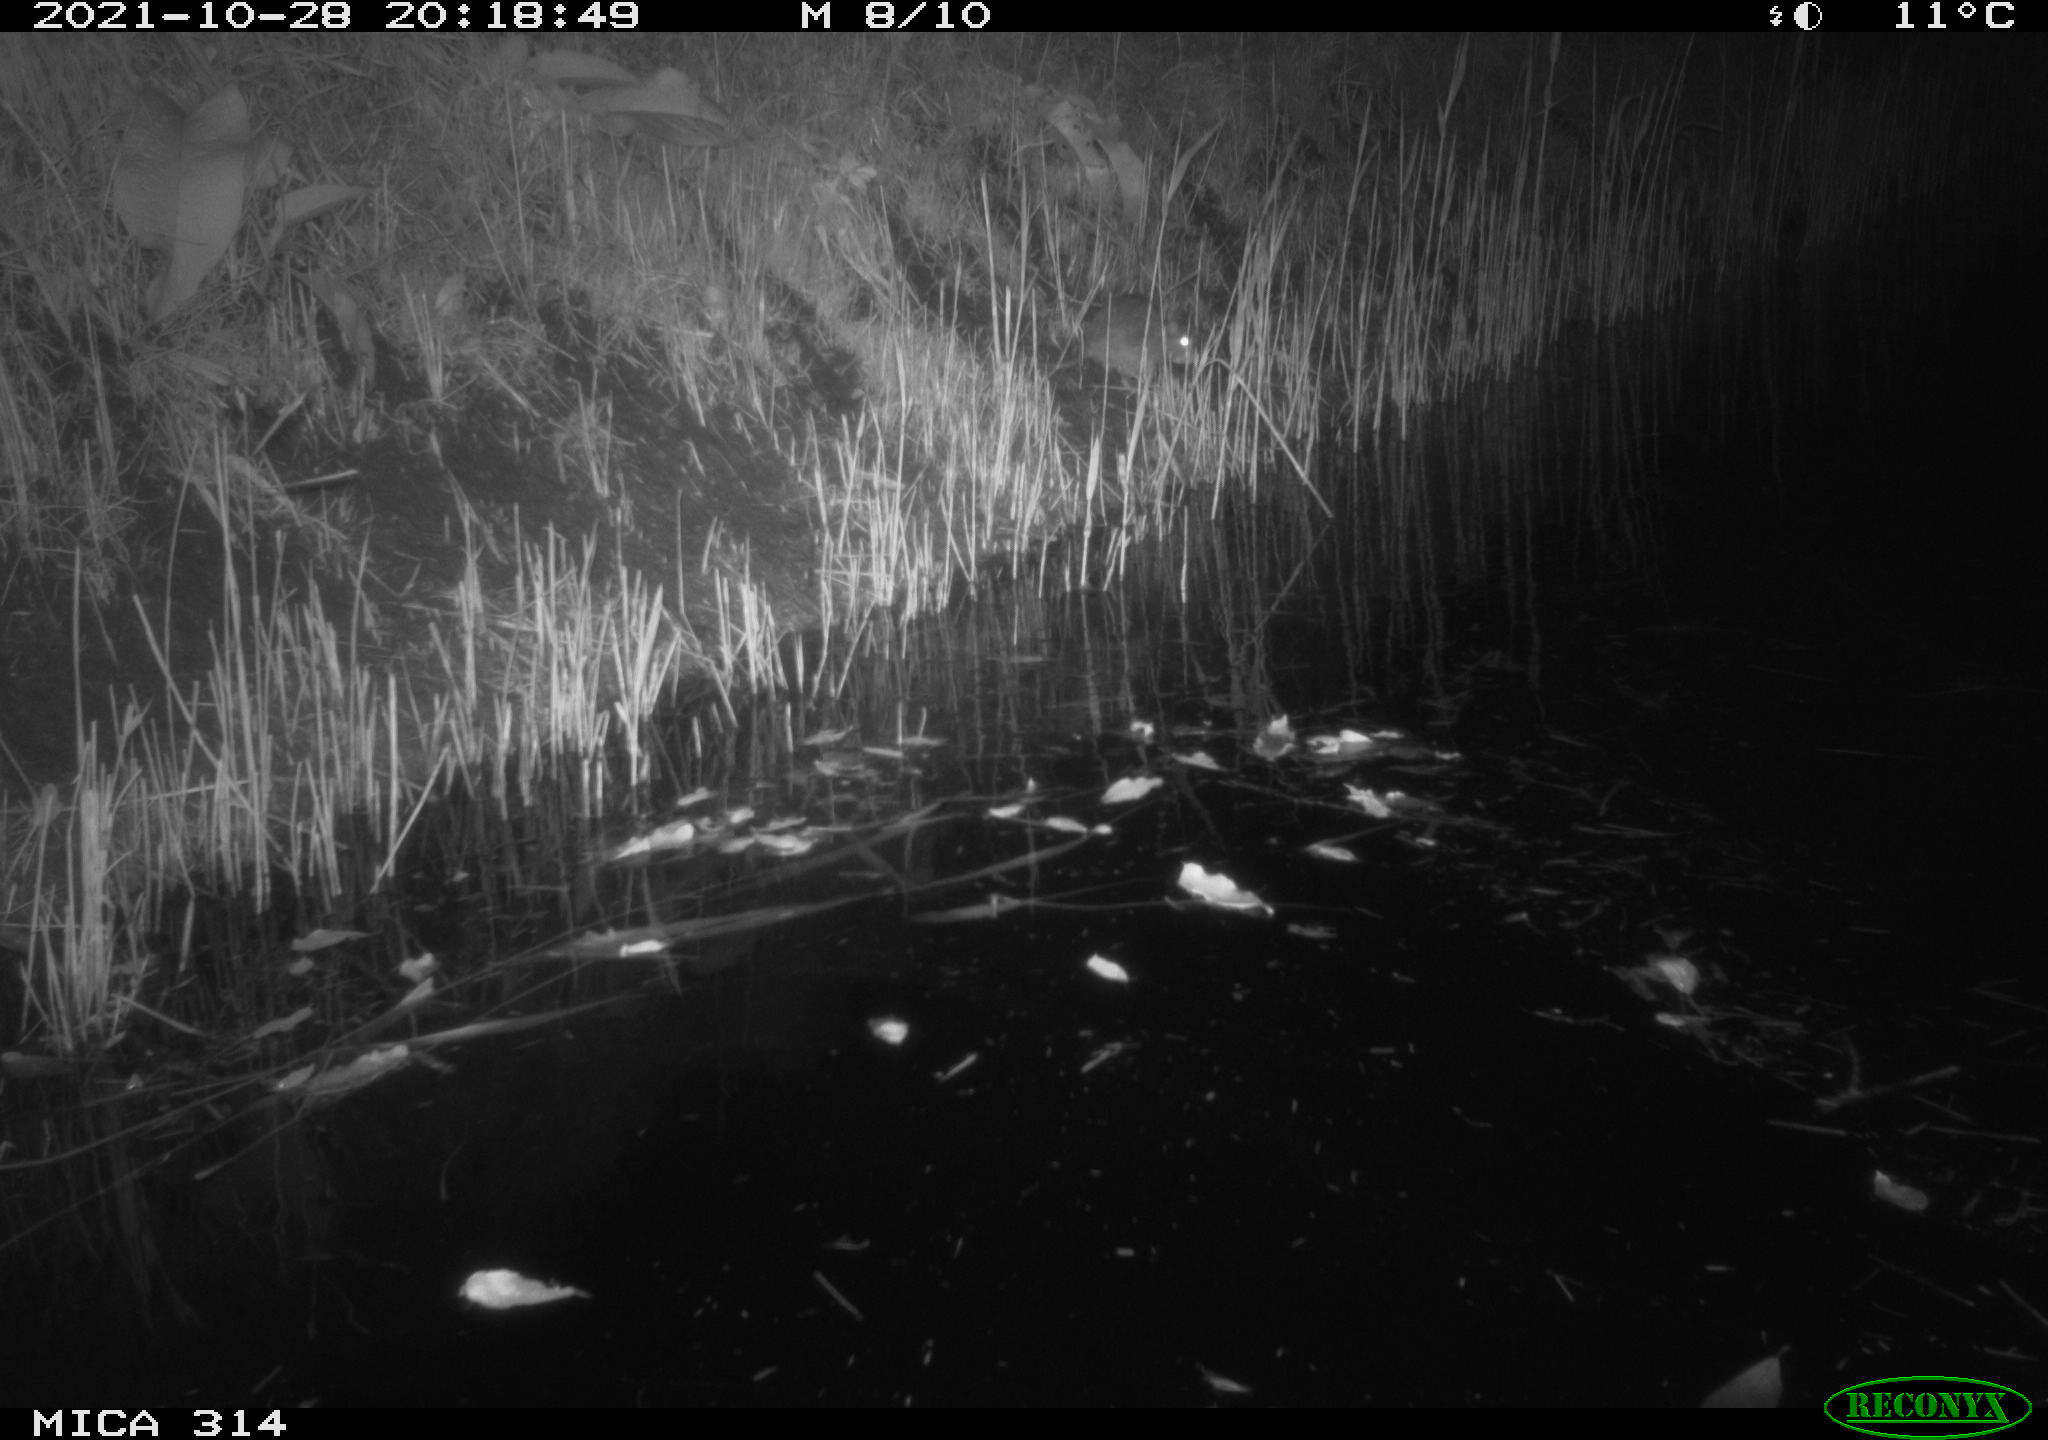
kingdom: Animalia
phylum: Chordata
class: Mammalia
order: Rodentia
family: Muridae
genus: Rattus
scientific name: Rattus norvegicus
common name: Brown rat
